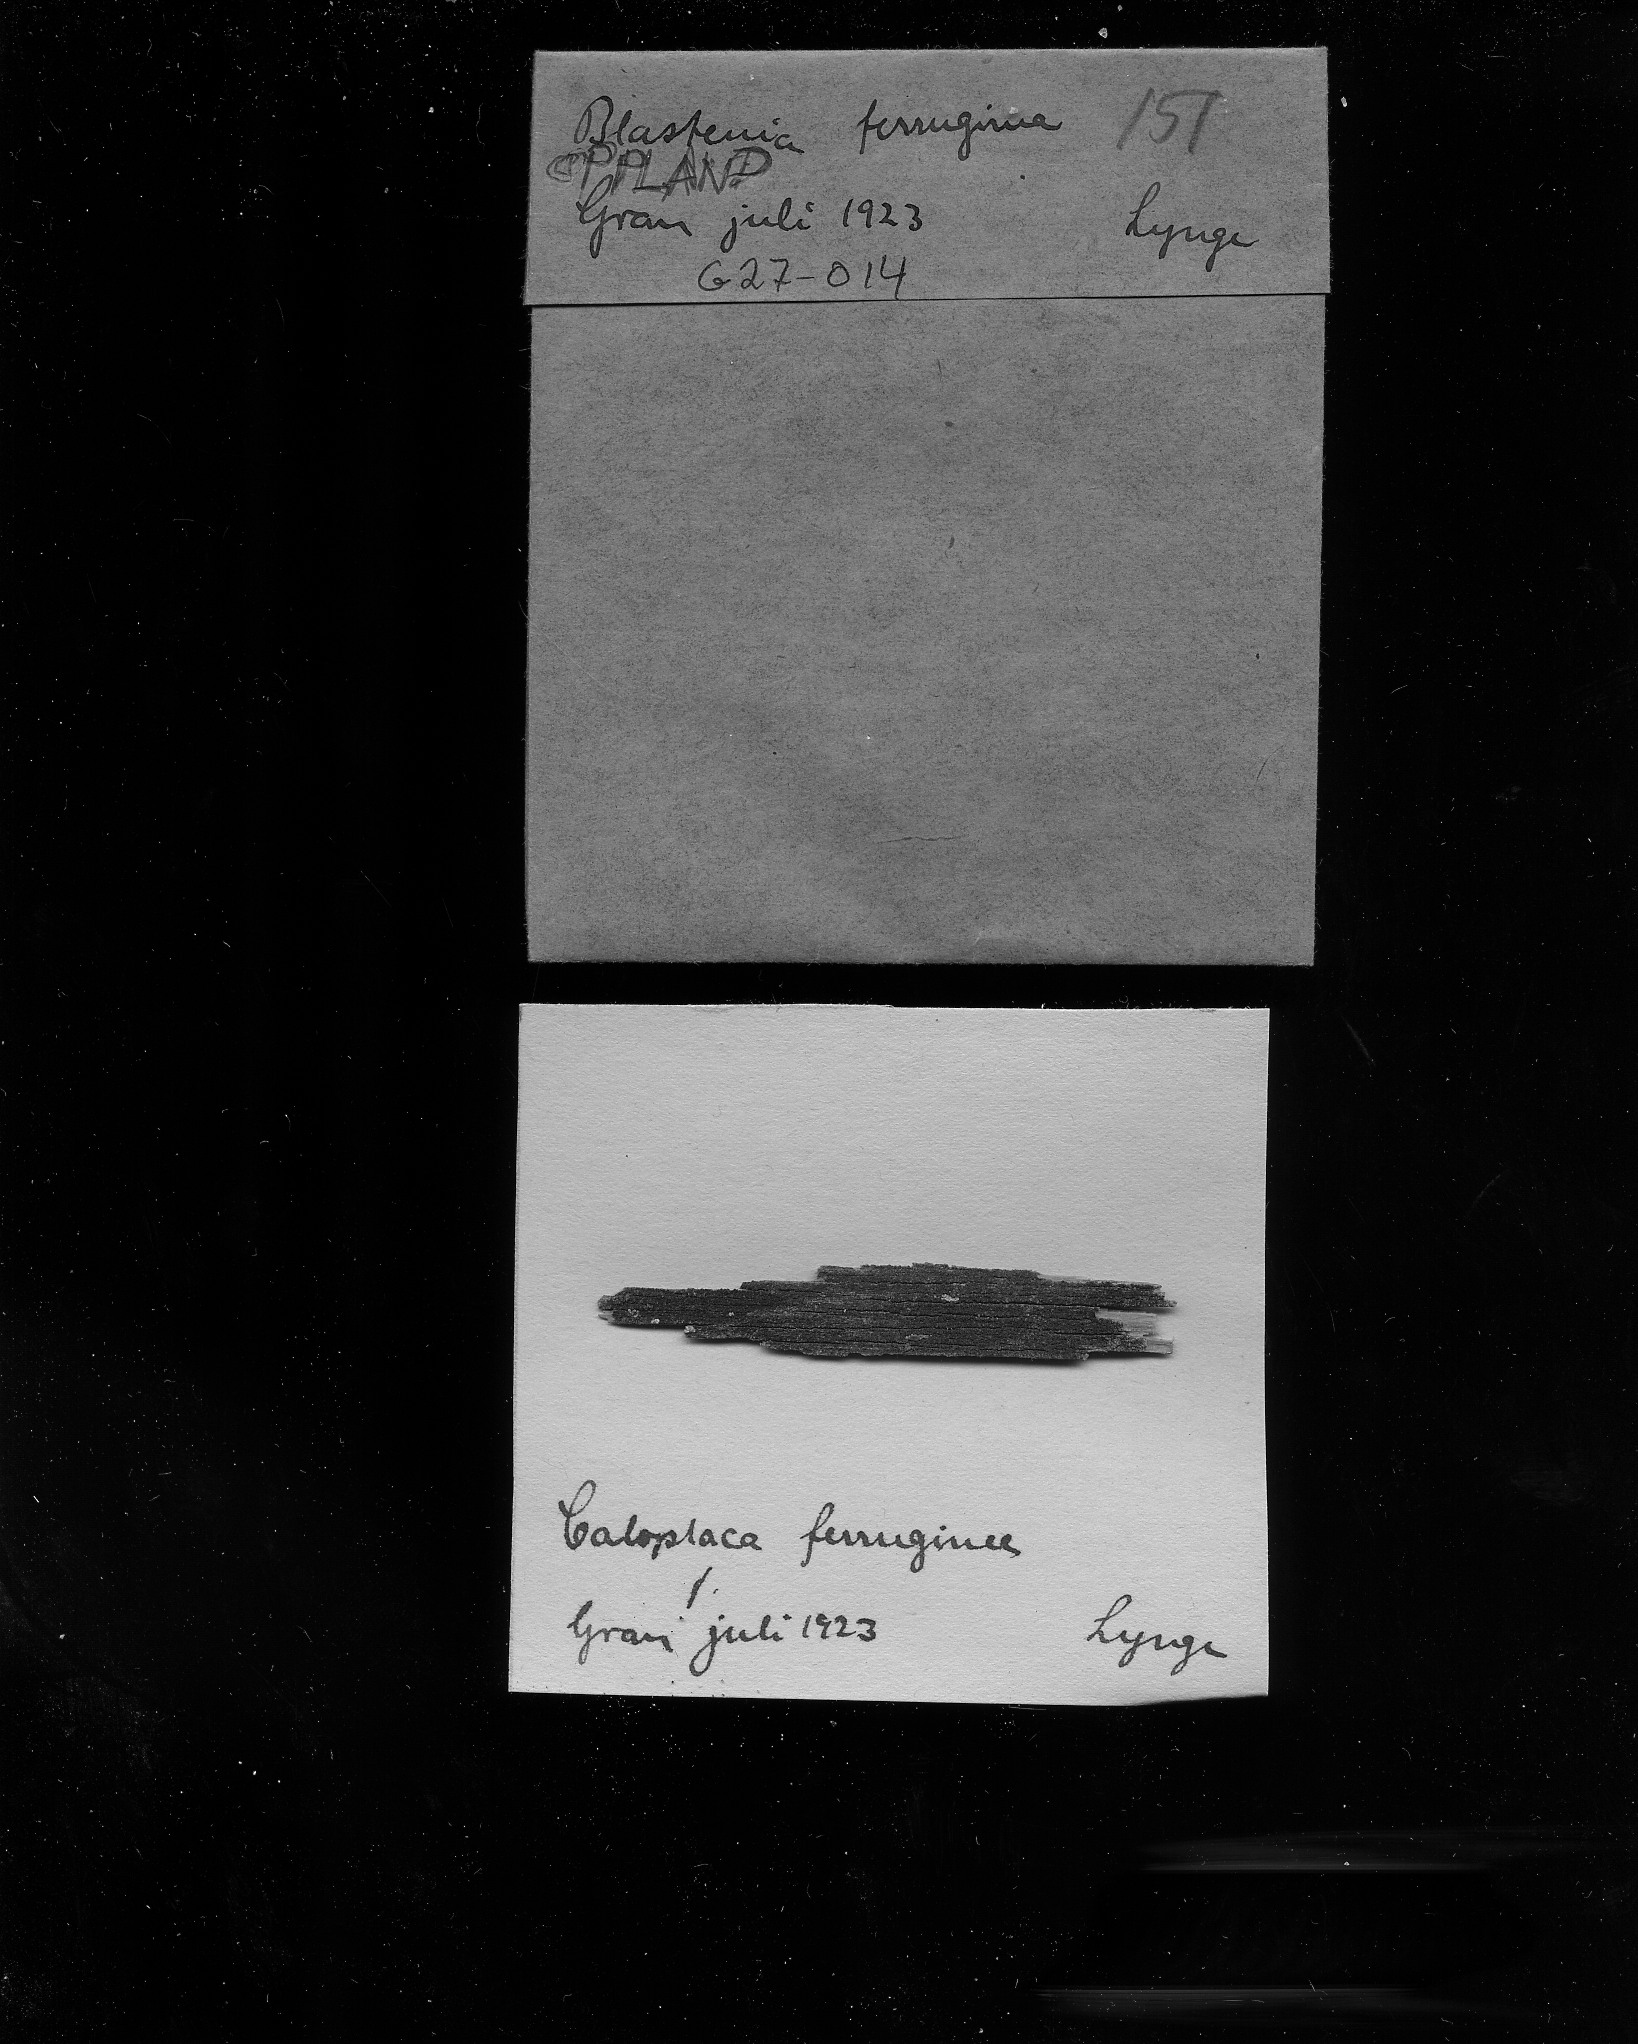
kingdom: Fungi
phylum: Ascomycota
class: Lecanoromycetes
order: Teloschistales
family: Teloschistaceae
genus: Blastenia
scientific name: Blastenia furfuracea
